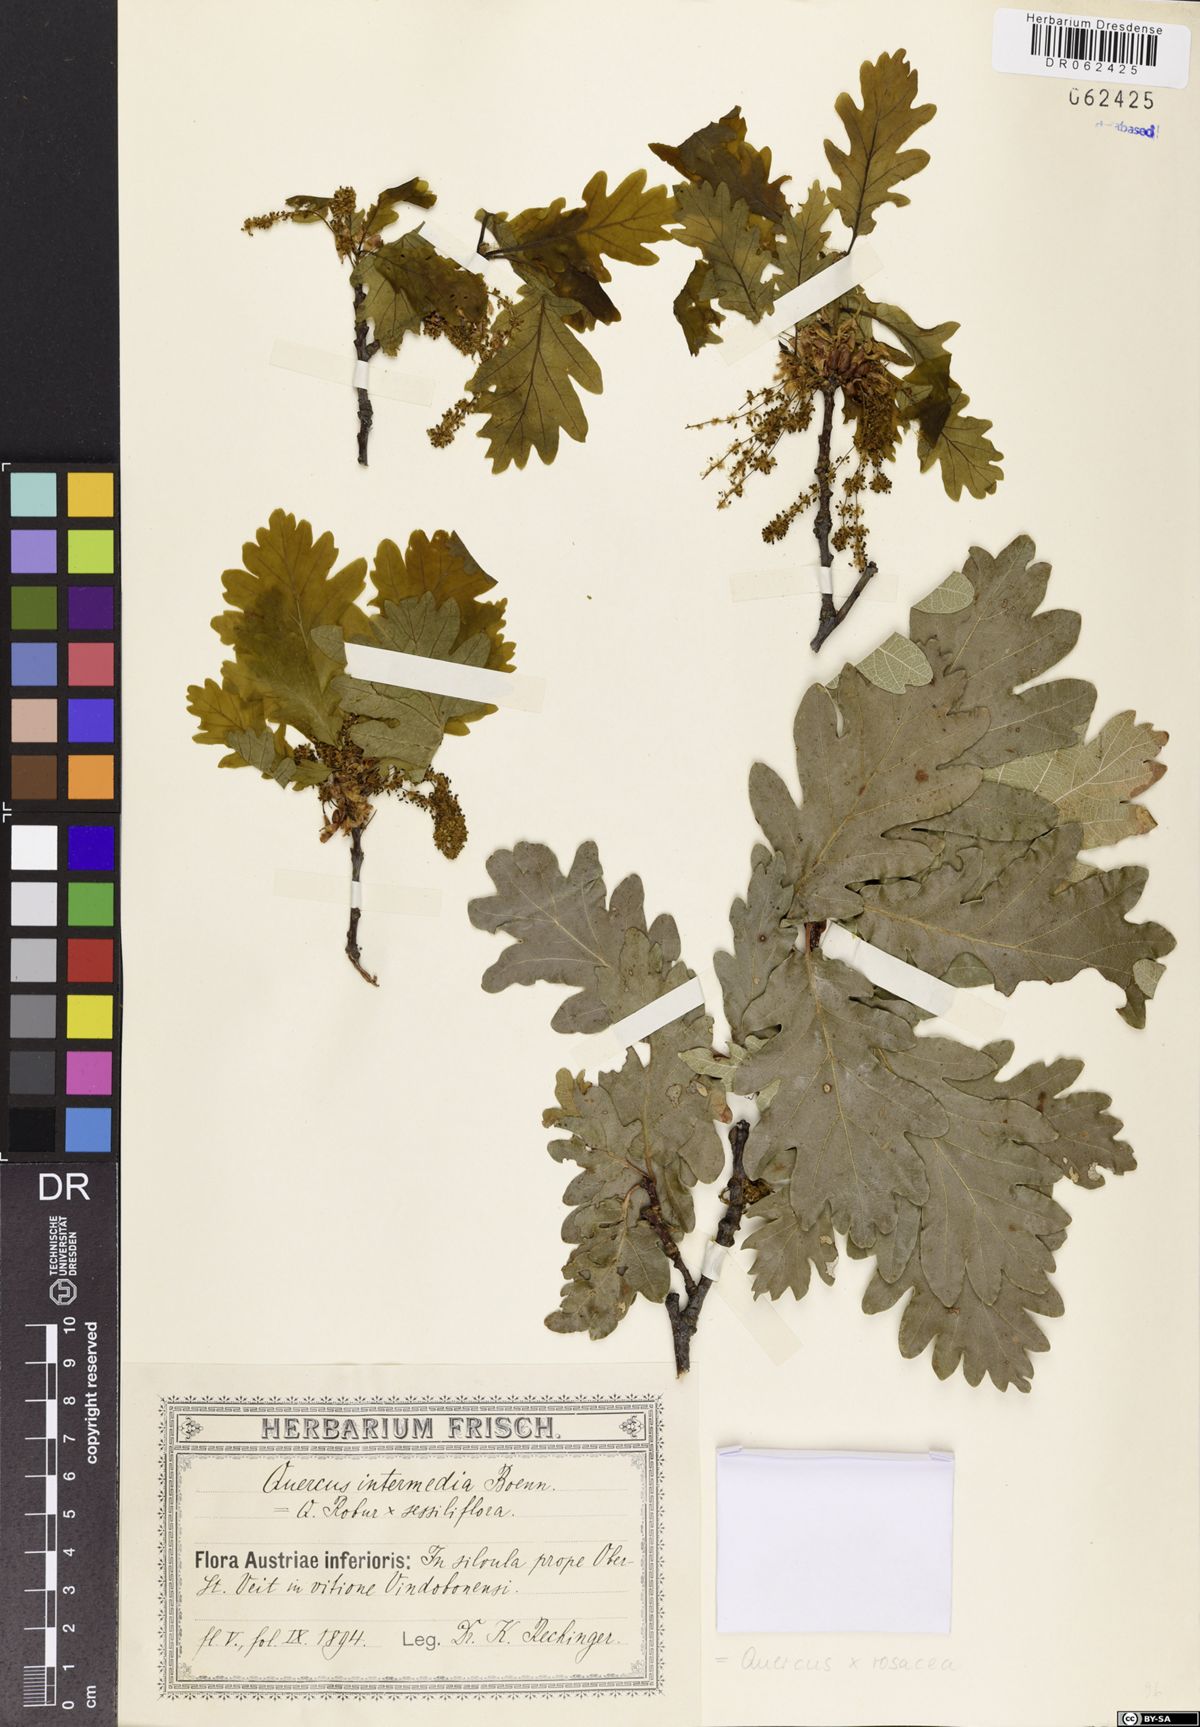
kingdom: Plantae
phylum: Tracheophyta
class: Magnoliopsida
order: Fagales
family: Fagaceae
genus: Quercus
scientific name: Quercus rosacea
